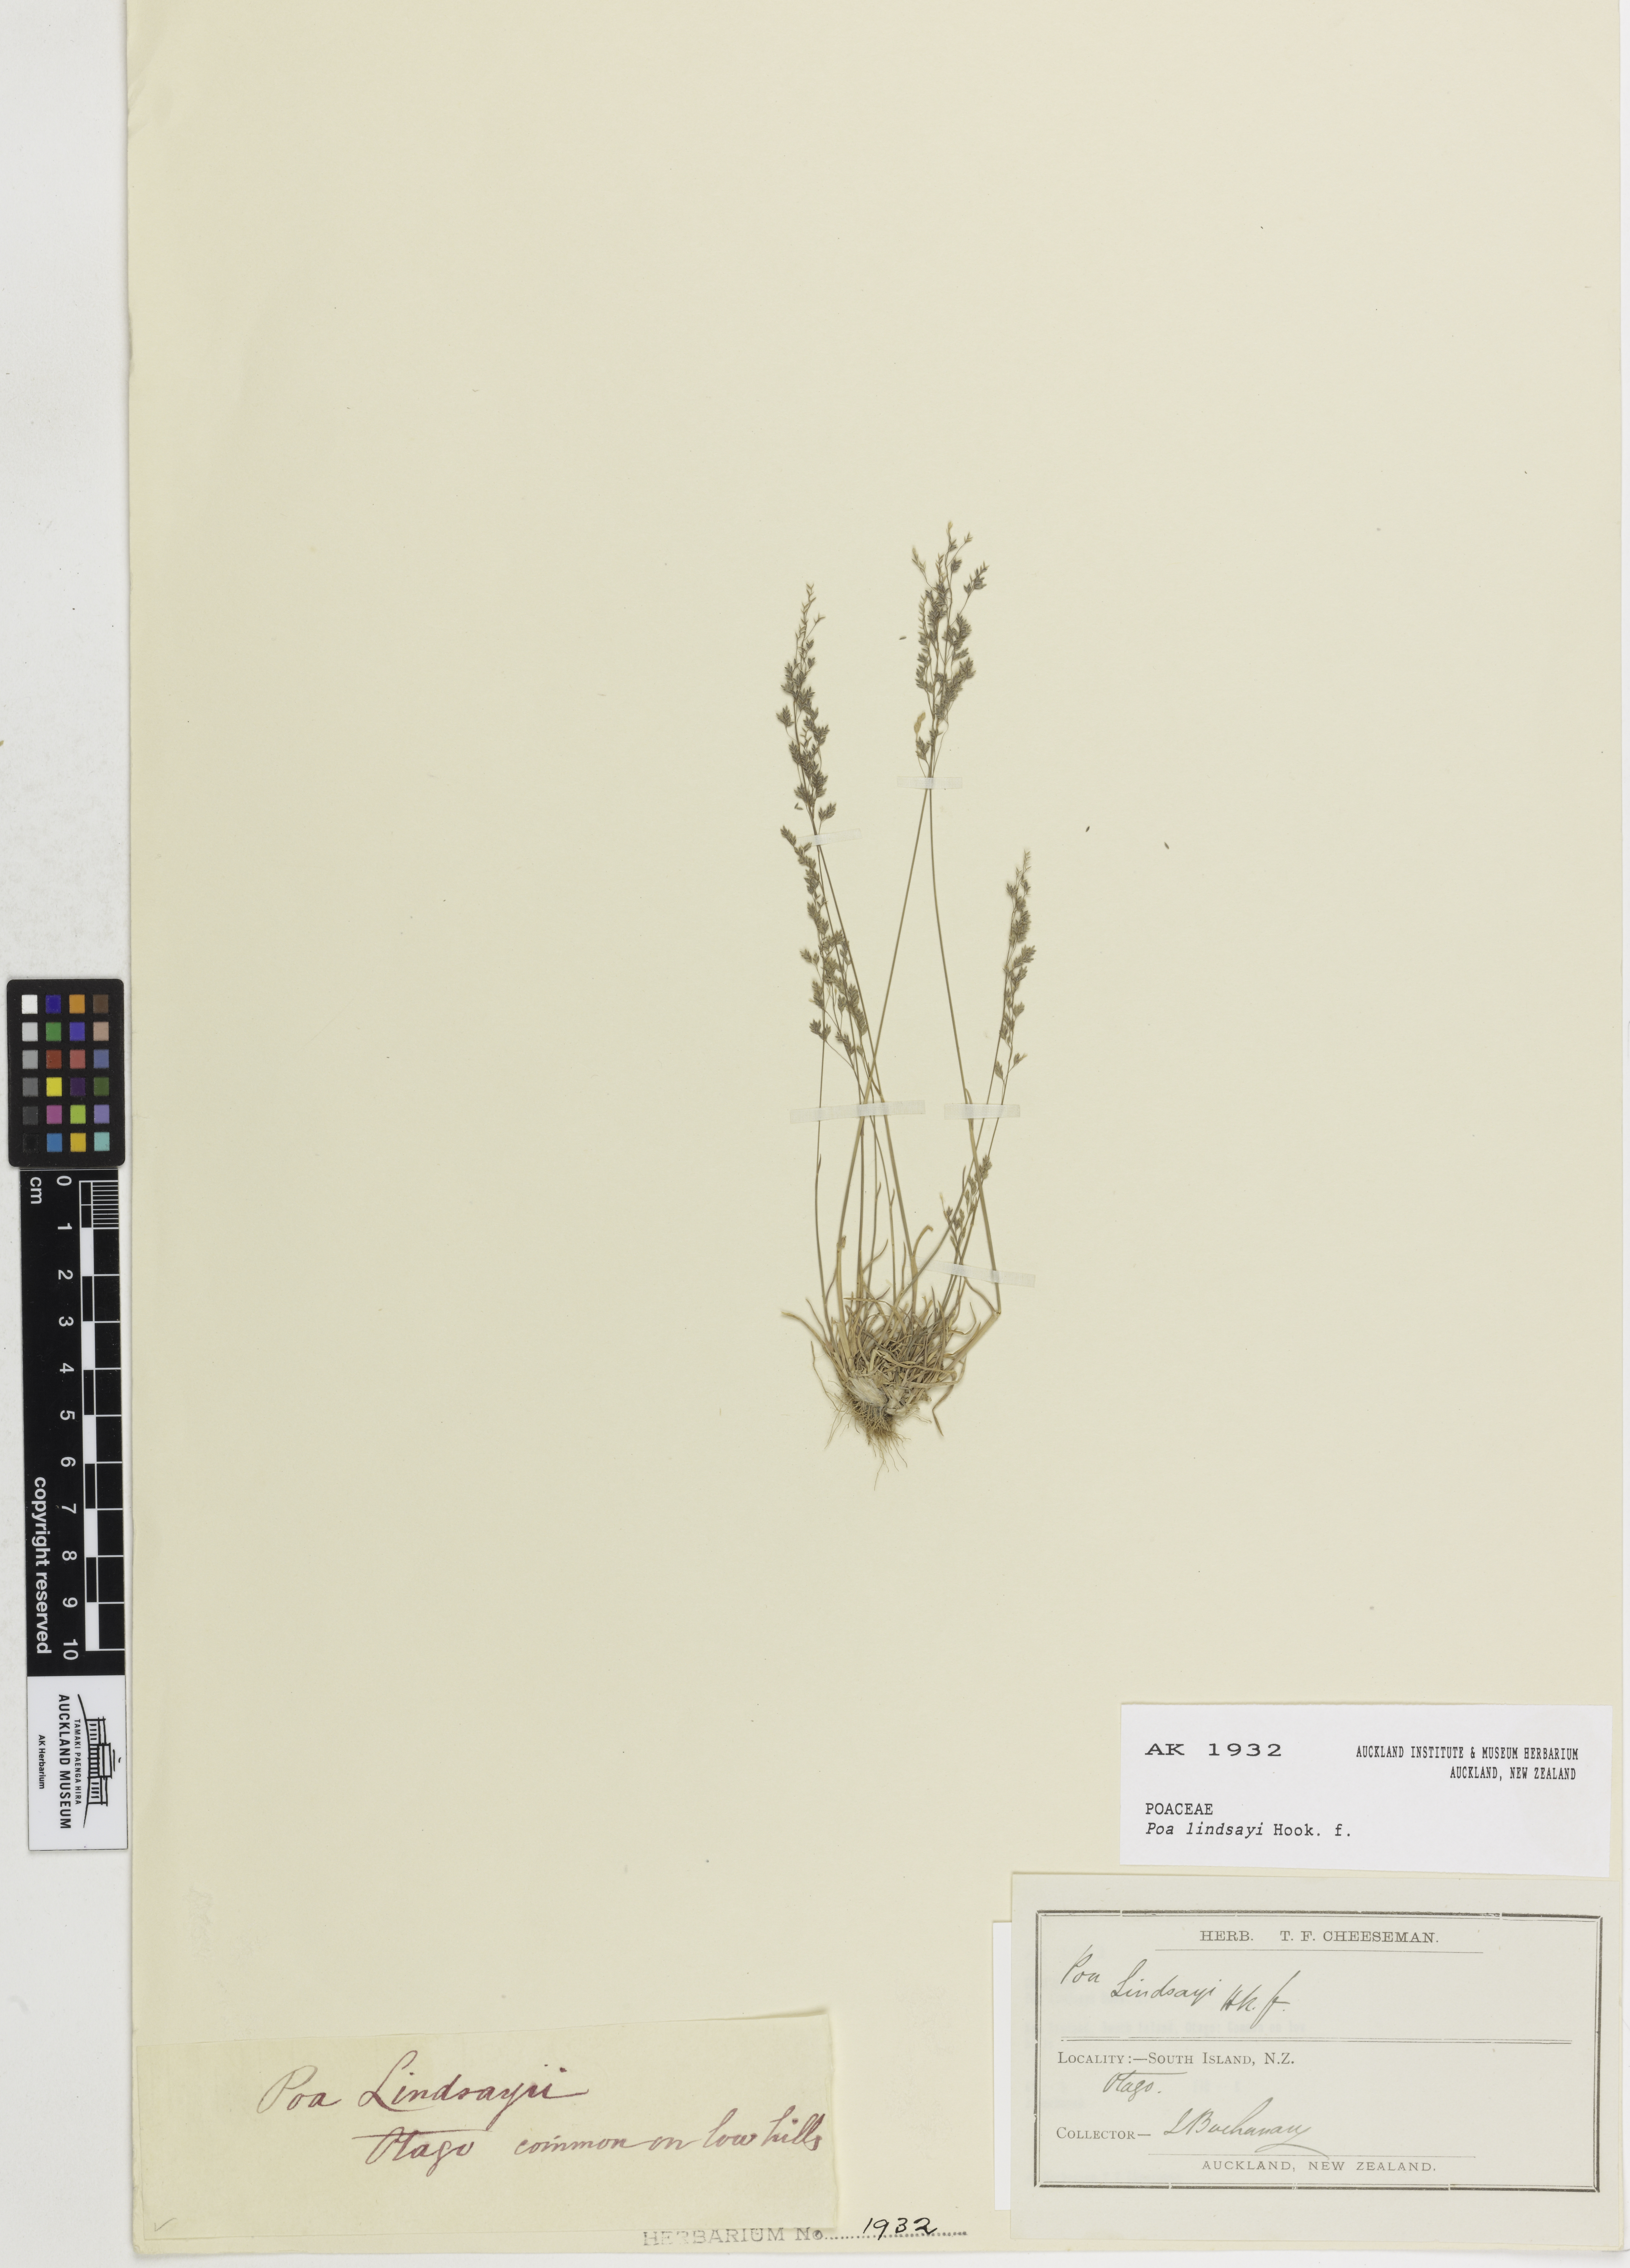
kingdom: Plantae
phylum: Tracheophyta
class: Liliopsida
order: Poales
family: Poaceae
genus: Poa
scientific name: Poa lindsayi
